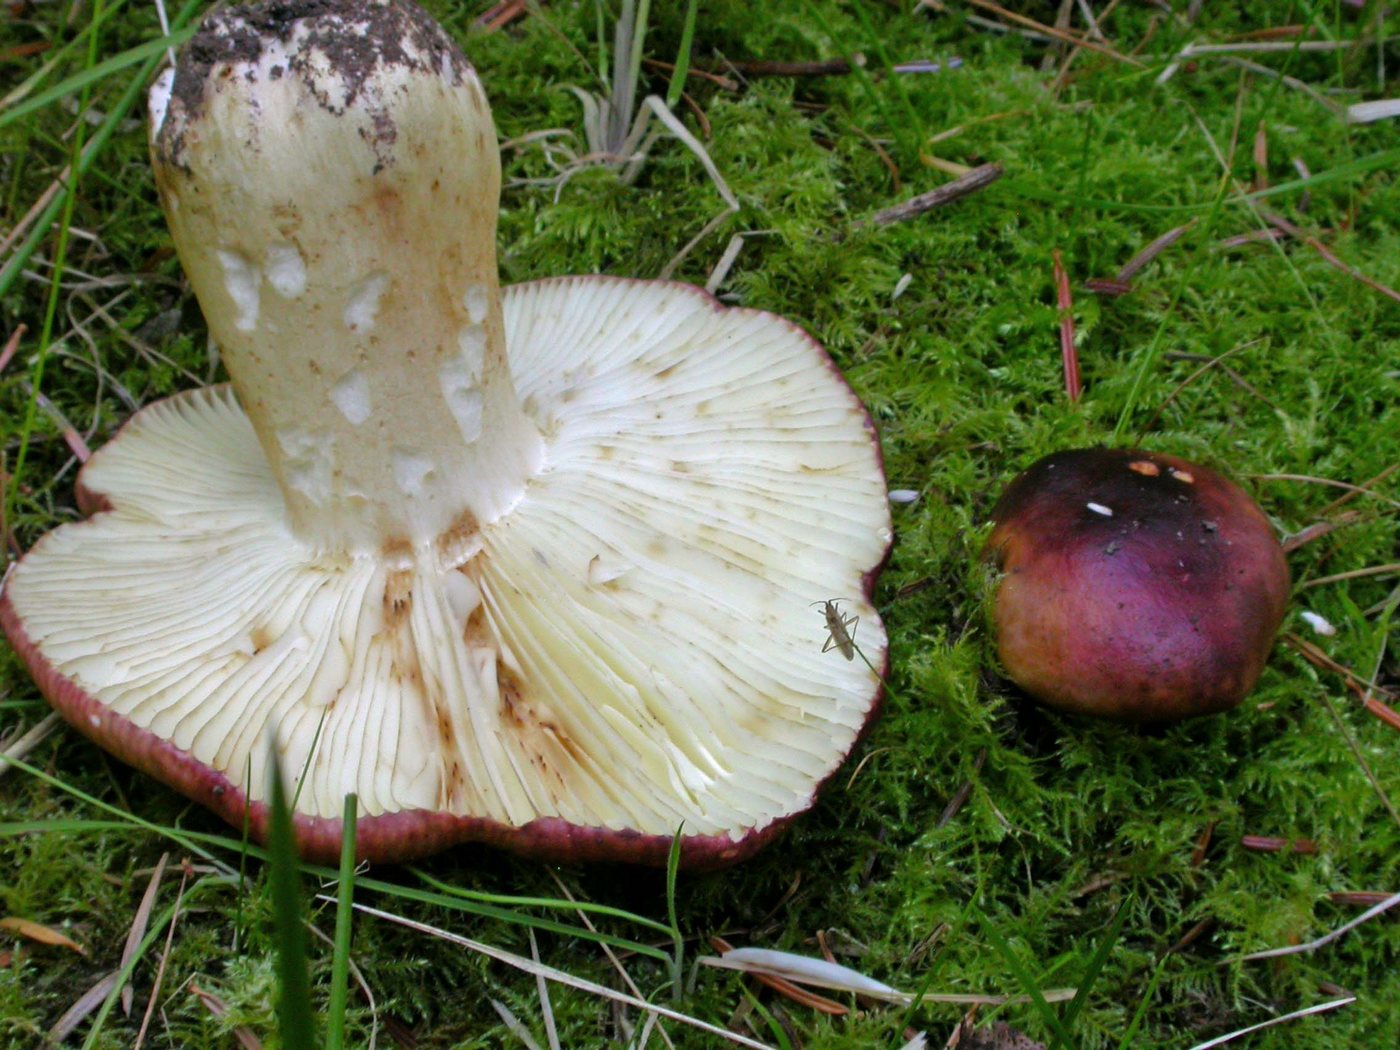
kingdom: Fungi
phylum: Basidiomycota
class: Agaricomycetes
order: Russulales
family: Russulaceae
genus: Russula
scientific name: Russula viscida
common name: knippe-skørhat
